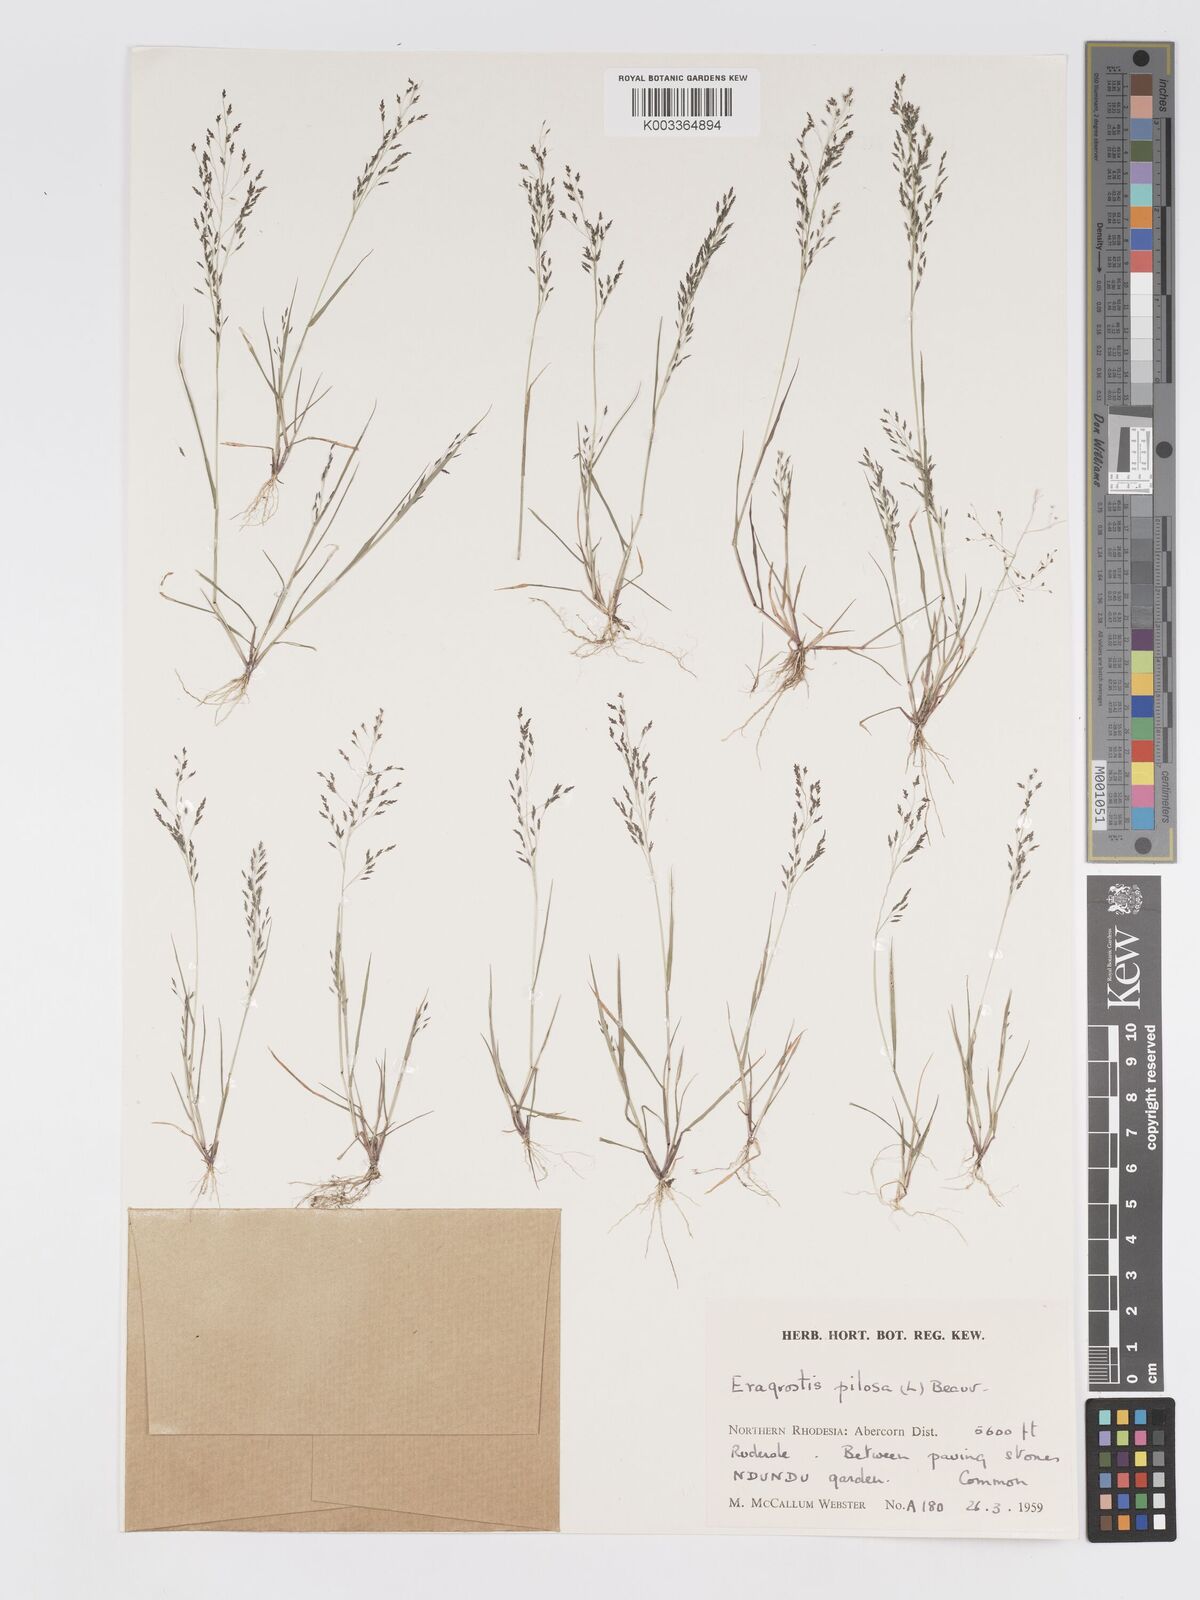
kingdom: Plantae
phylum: Tracheophyta
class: Liliopsida
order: Poales
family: Poaceae
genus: Eragrostis
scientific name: Eragrostis pilosa
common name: Indian lovegrass
